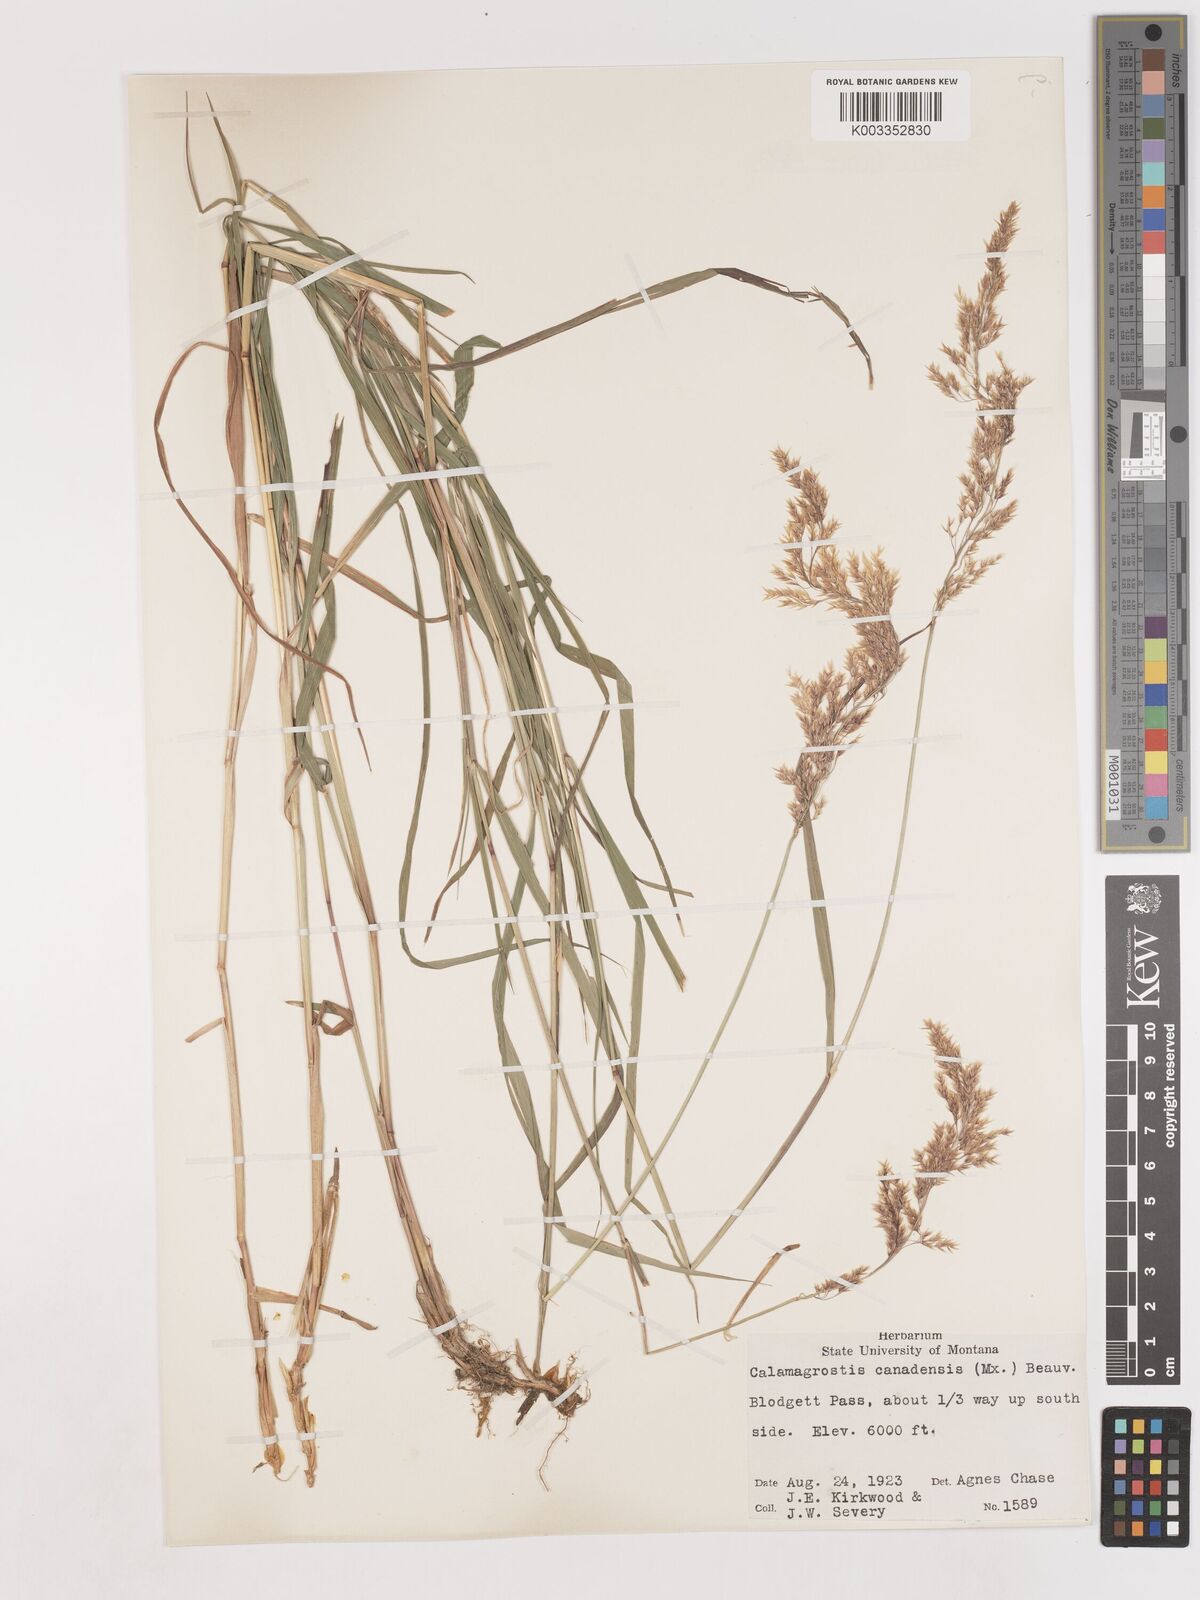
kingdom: Plantae
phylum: Tracheophyta
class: Liliopsida
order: Poales
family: Poaceae
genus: Calamagrostis
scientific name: Calamagrostis canadensis
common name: Canada bluejoint
